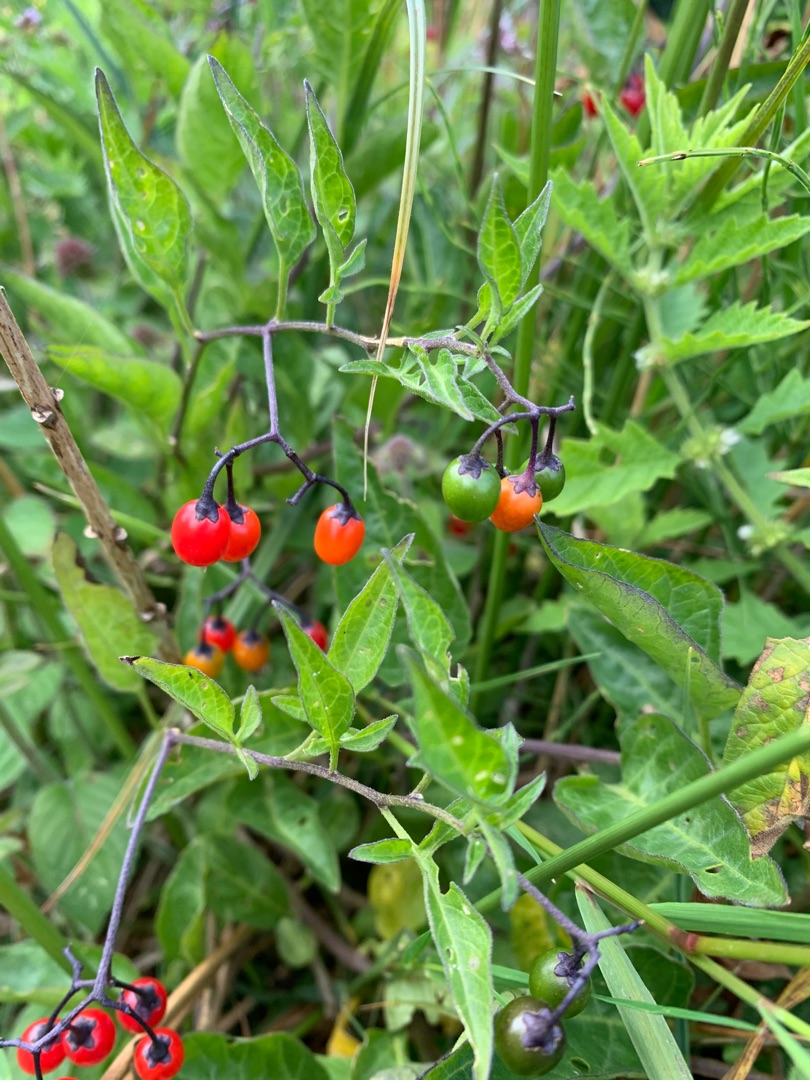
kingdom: Plantae
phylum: Tracheophyta
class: Magnoliopsida
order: Solanales
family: Solanaceae
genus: Solanum
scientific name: Solanum dulcamara
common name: Bittersød natskygge
